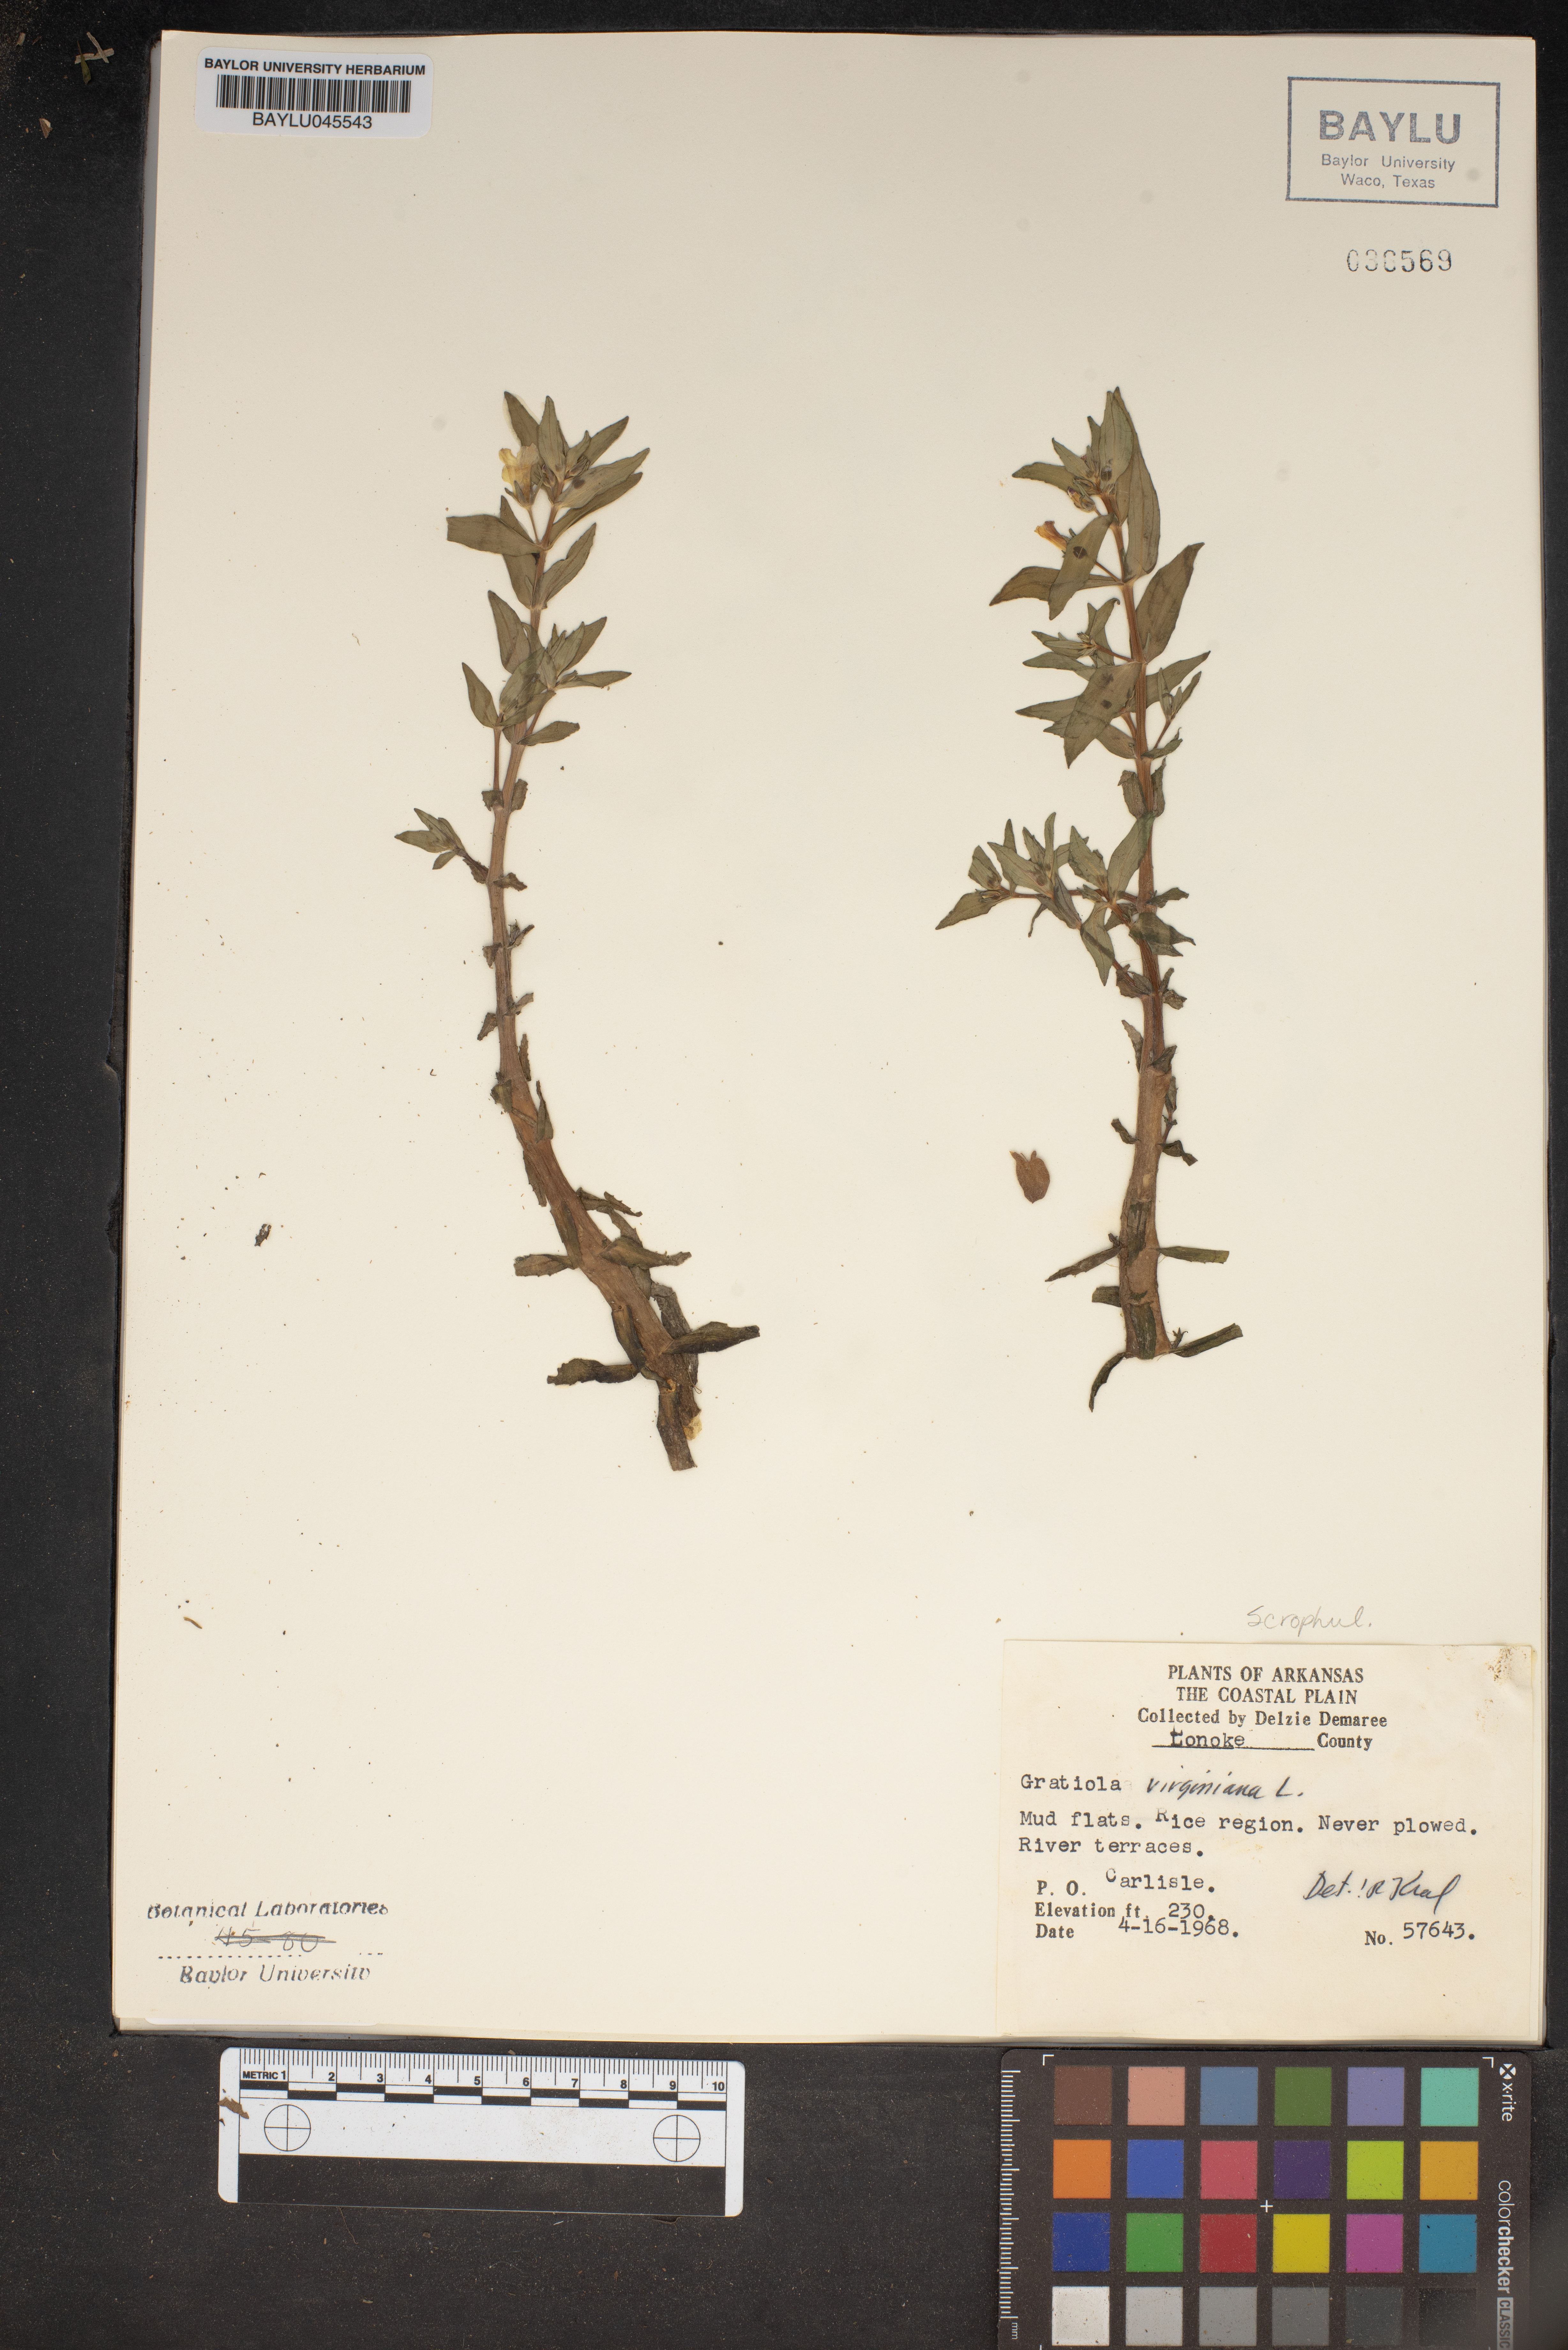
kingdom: Plantae
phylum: Tracheophyta
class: Magnoliopsida
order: Lamiales
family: Plantaginaceae
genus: Gratiola
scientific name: Gratiola virginiana
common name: Roundfruit hedgehyssop
